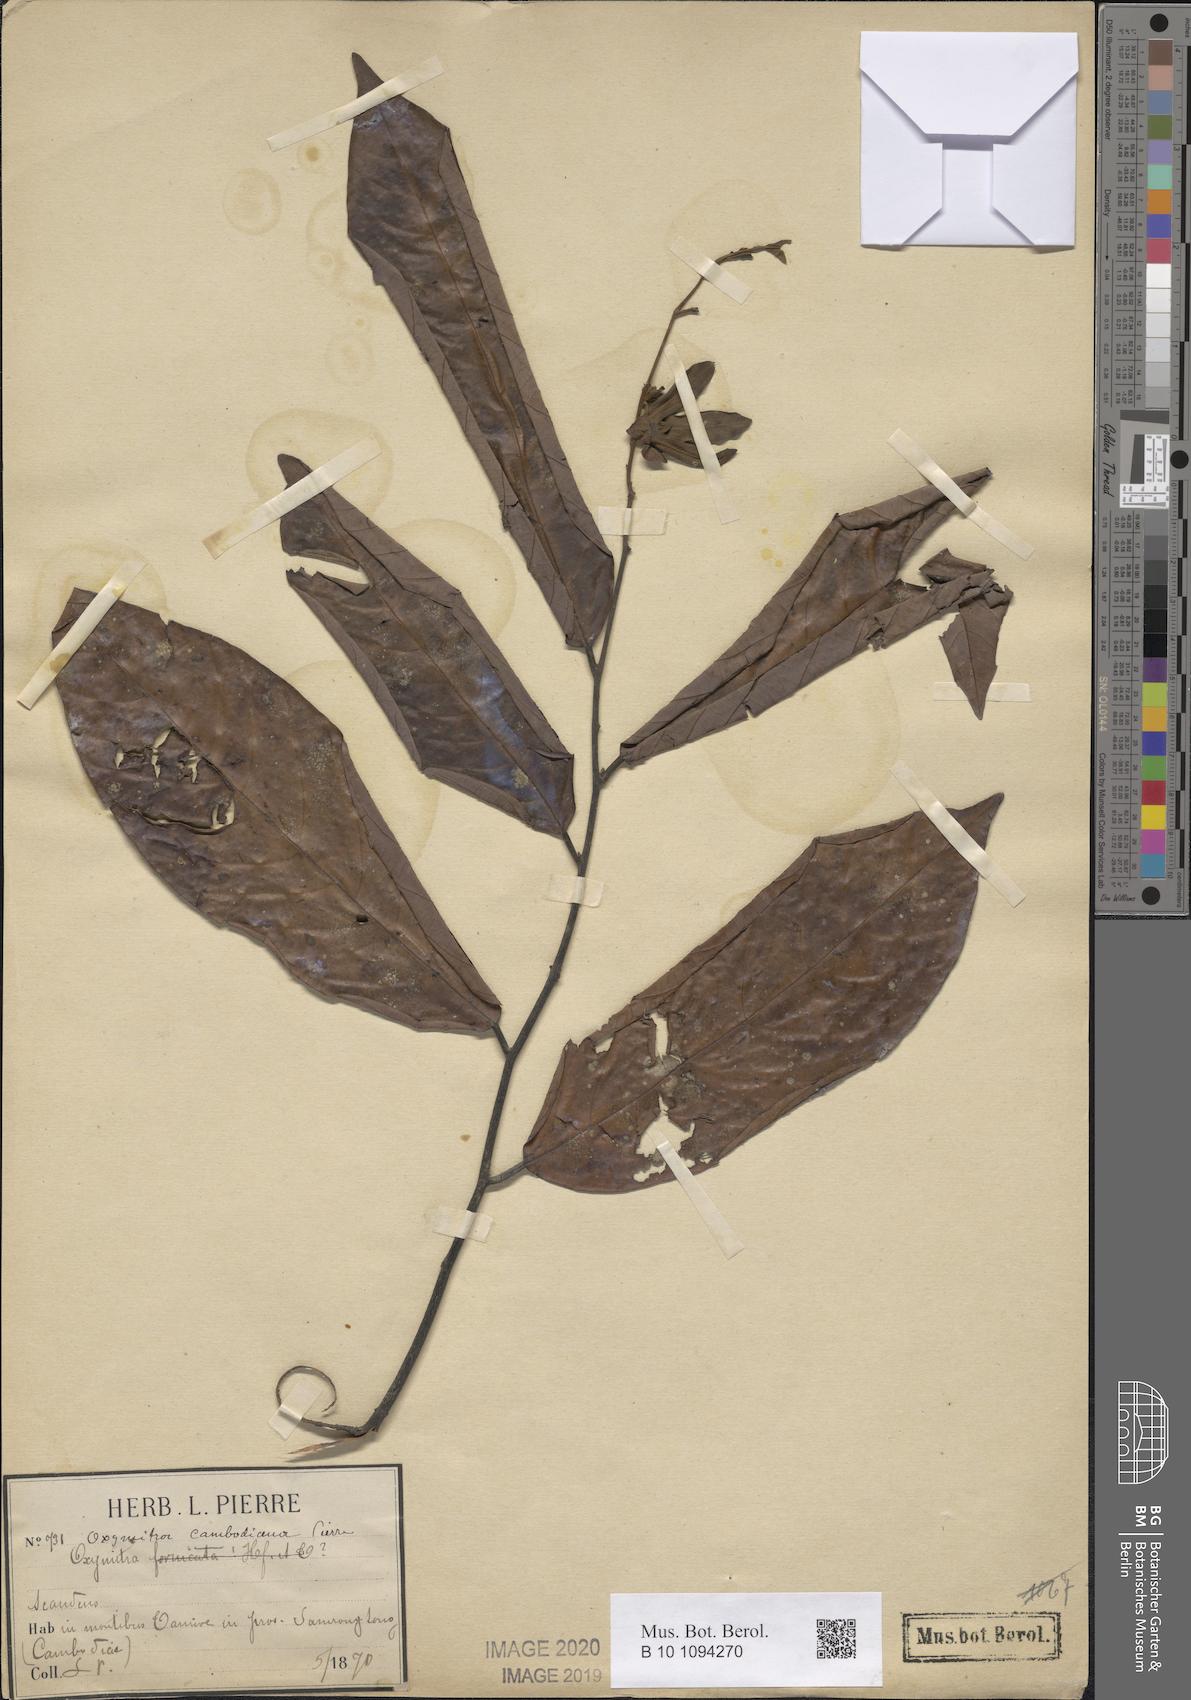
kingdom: Plantae
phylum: Tracheophyta
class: Magnoliopsida
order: Magnoliales
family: Annonaceae
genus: Friesodielsia
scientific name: Friesodielsia fornicata
